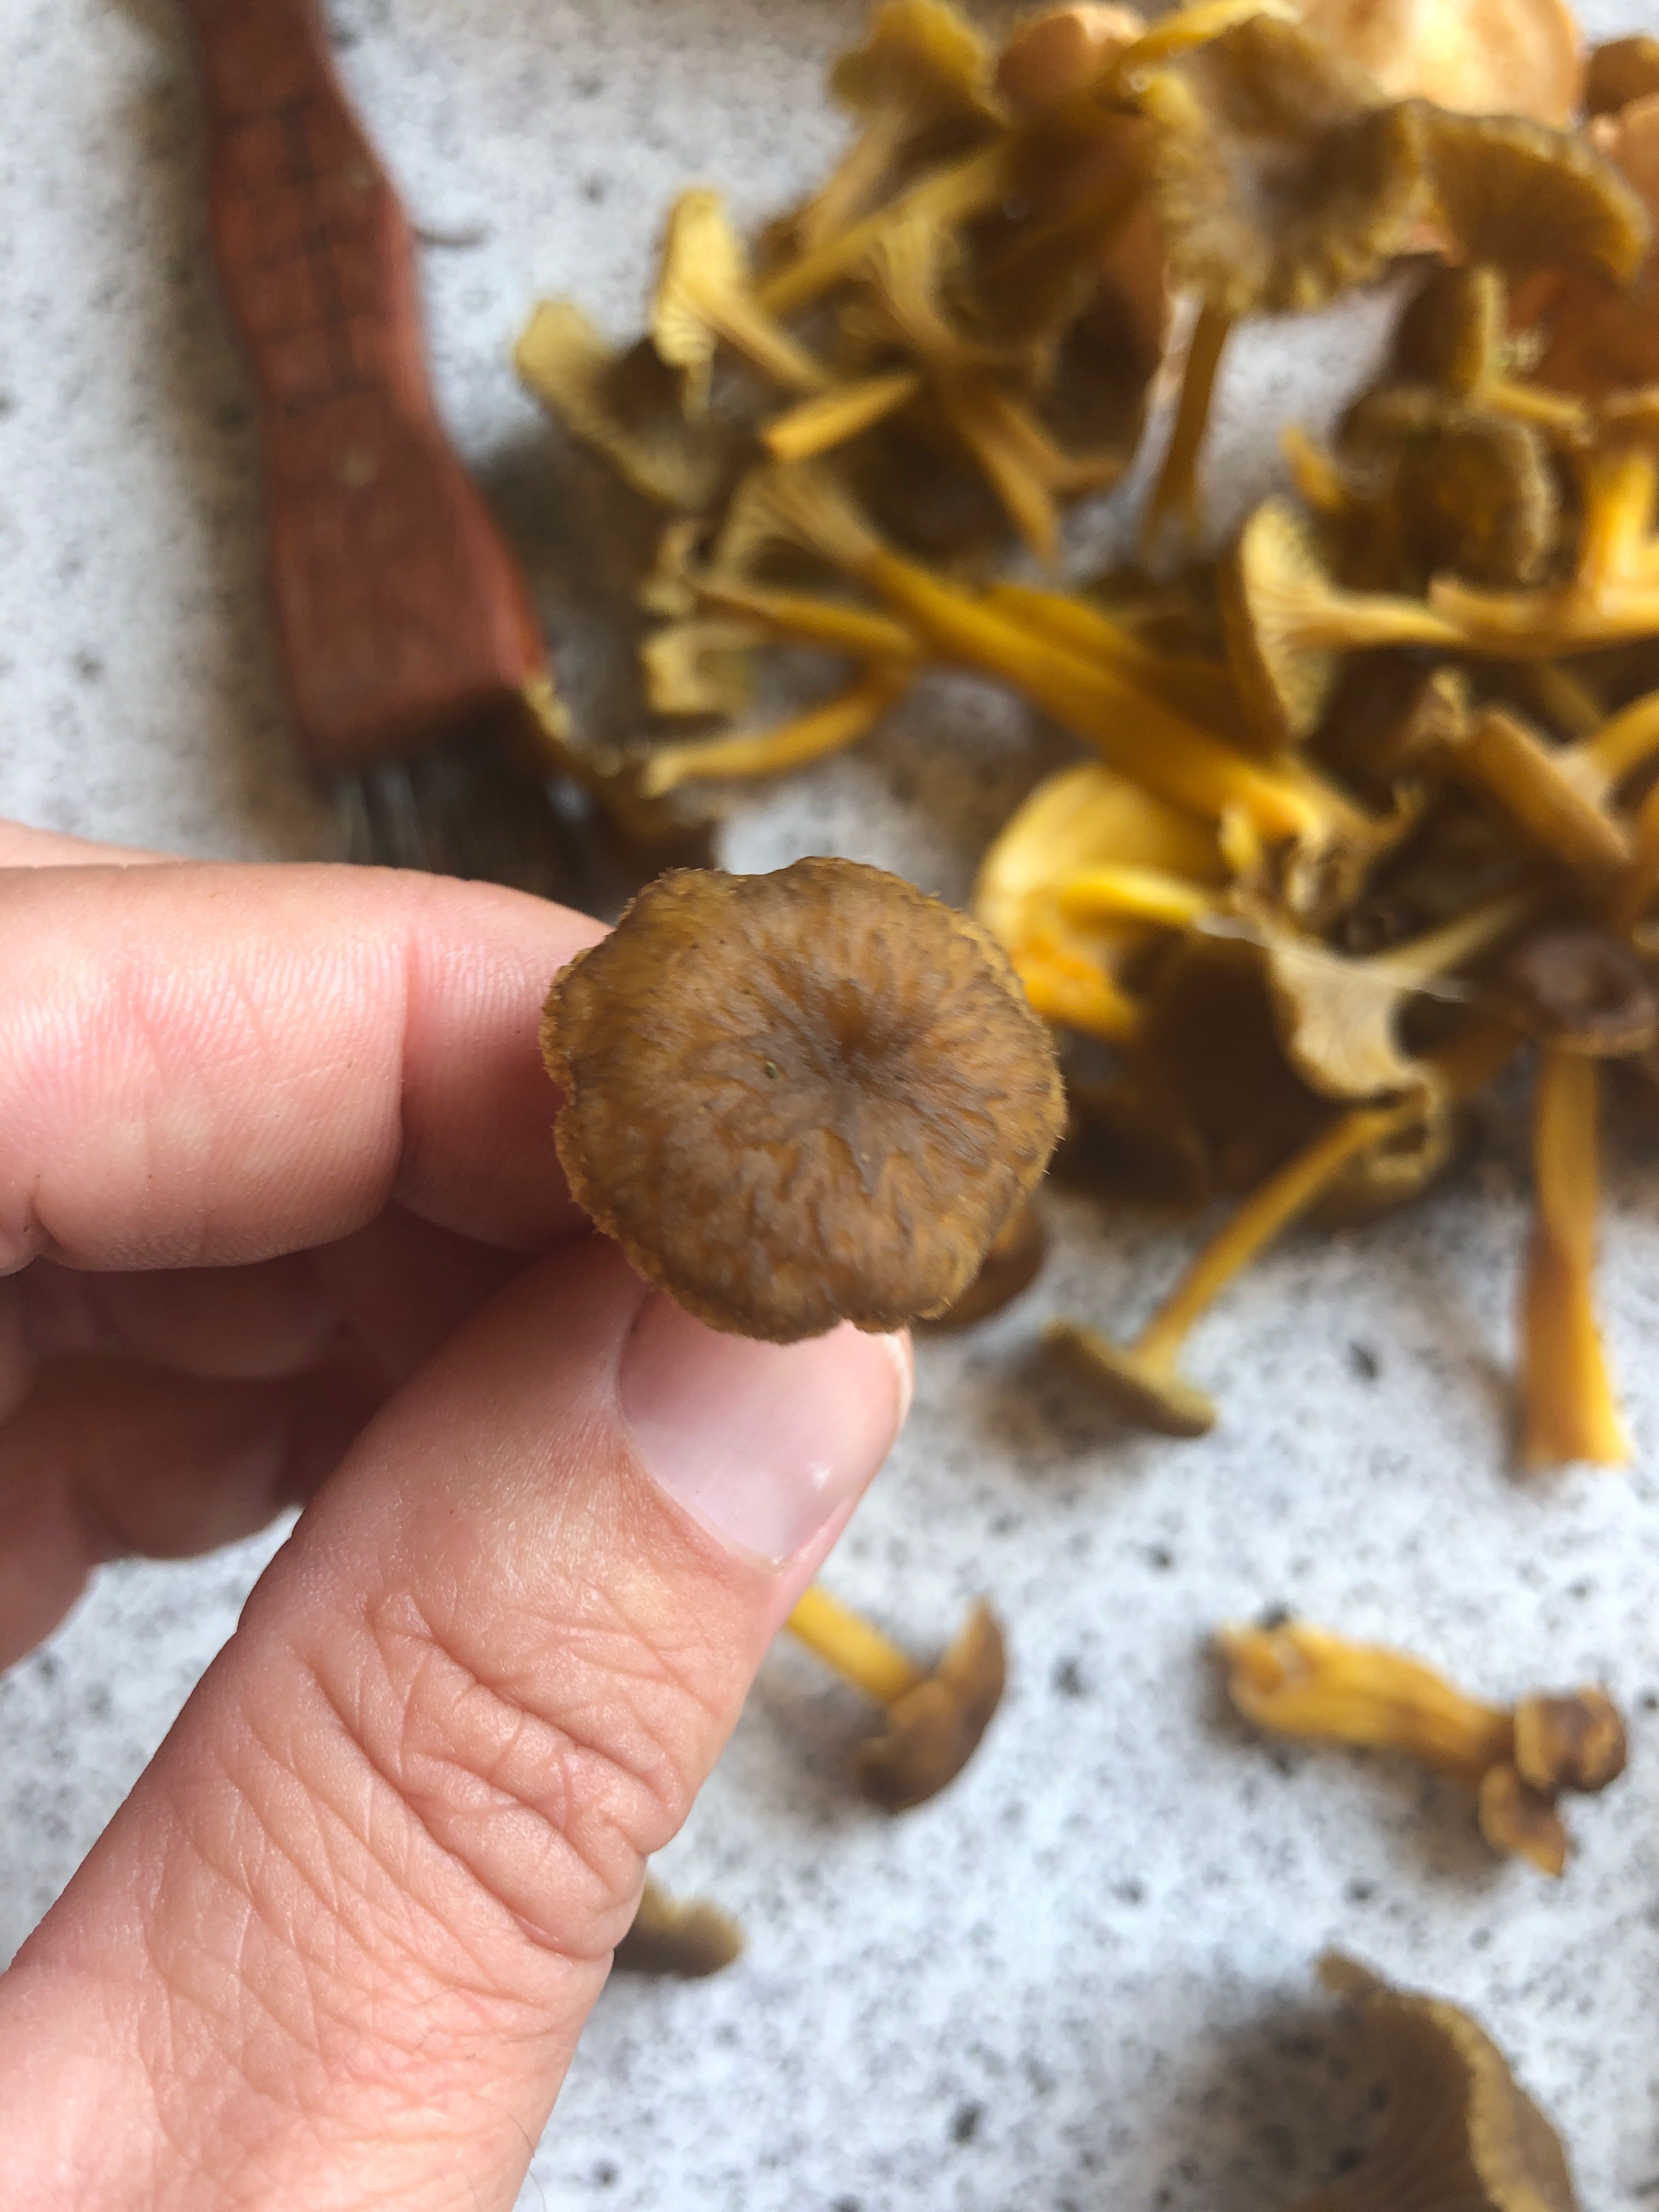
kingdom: Fungi
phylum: Basidiomycota
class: Agaricomycetes
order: Cantharellales
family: Hydnaceae
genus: Craterellus
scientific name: Craterellus tubaeformis
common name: tragt-kantarel
